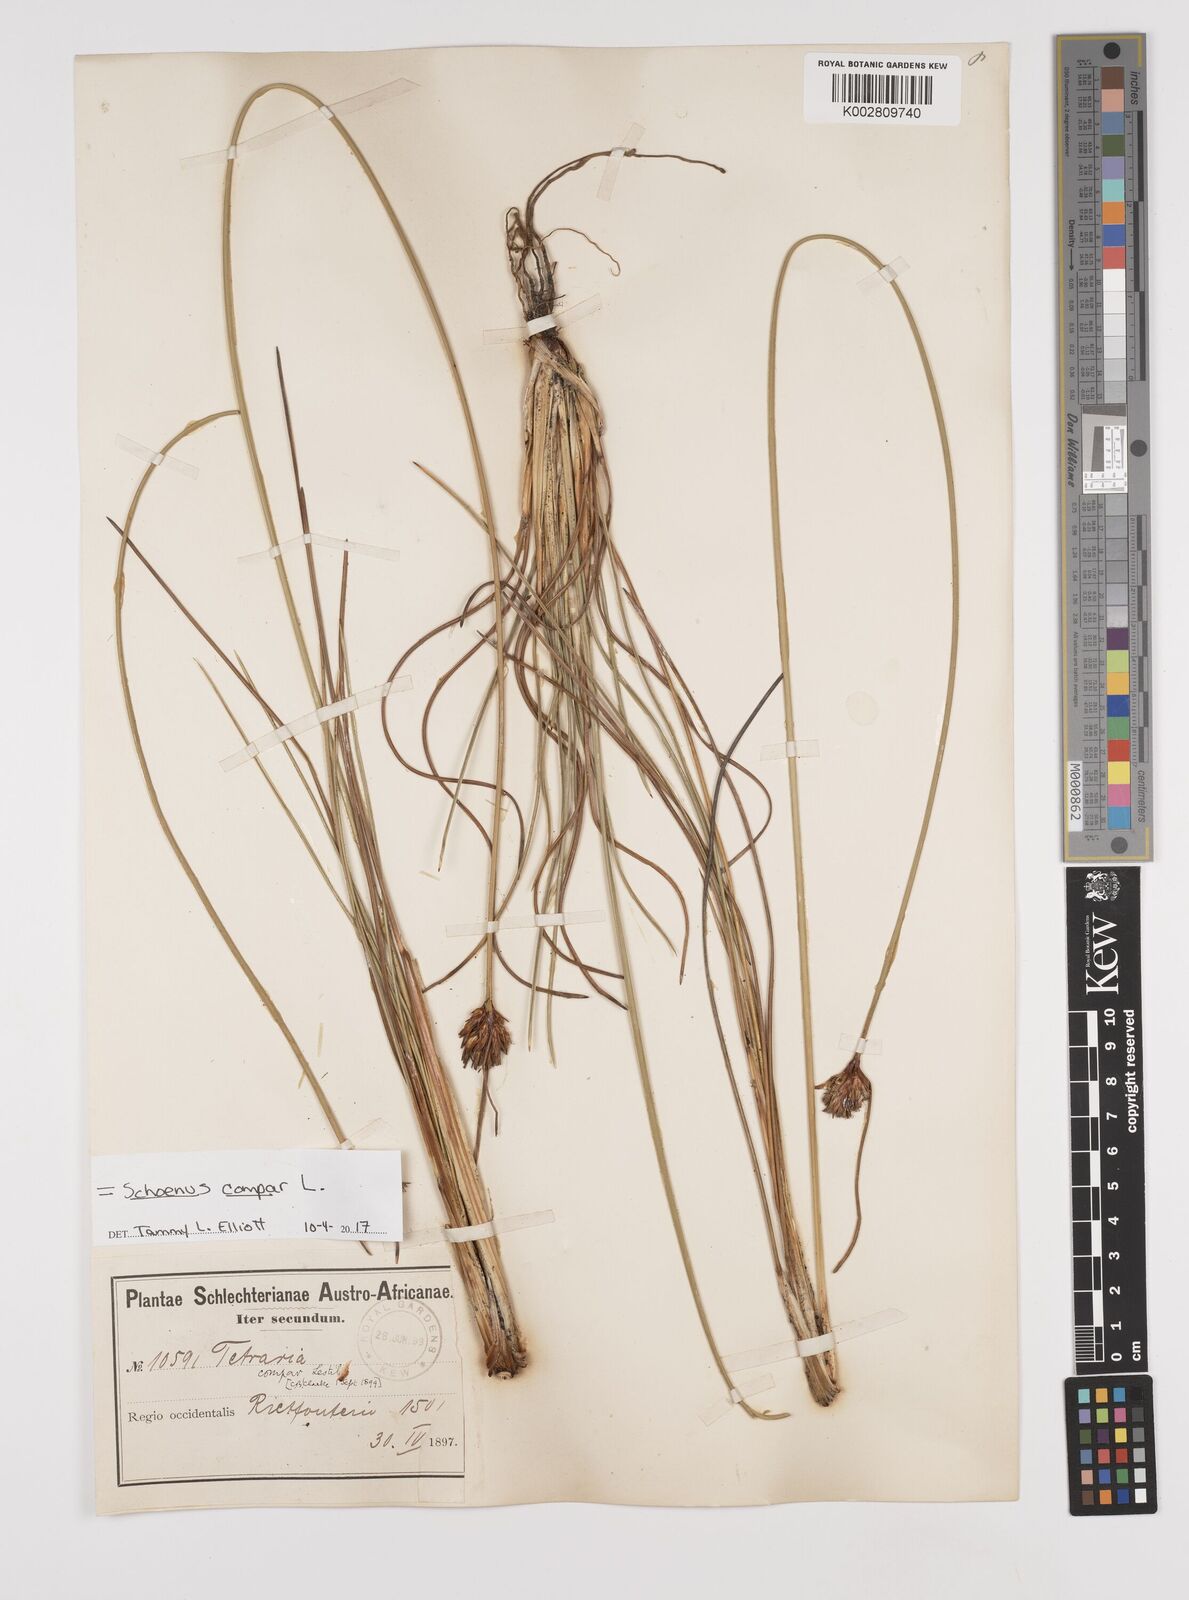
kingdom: Plantae
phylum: Tracheophyta
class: Liliopsida
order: Poales
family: Cyperaceae
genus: Schoenus
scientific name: Schoenus compar
